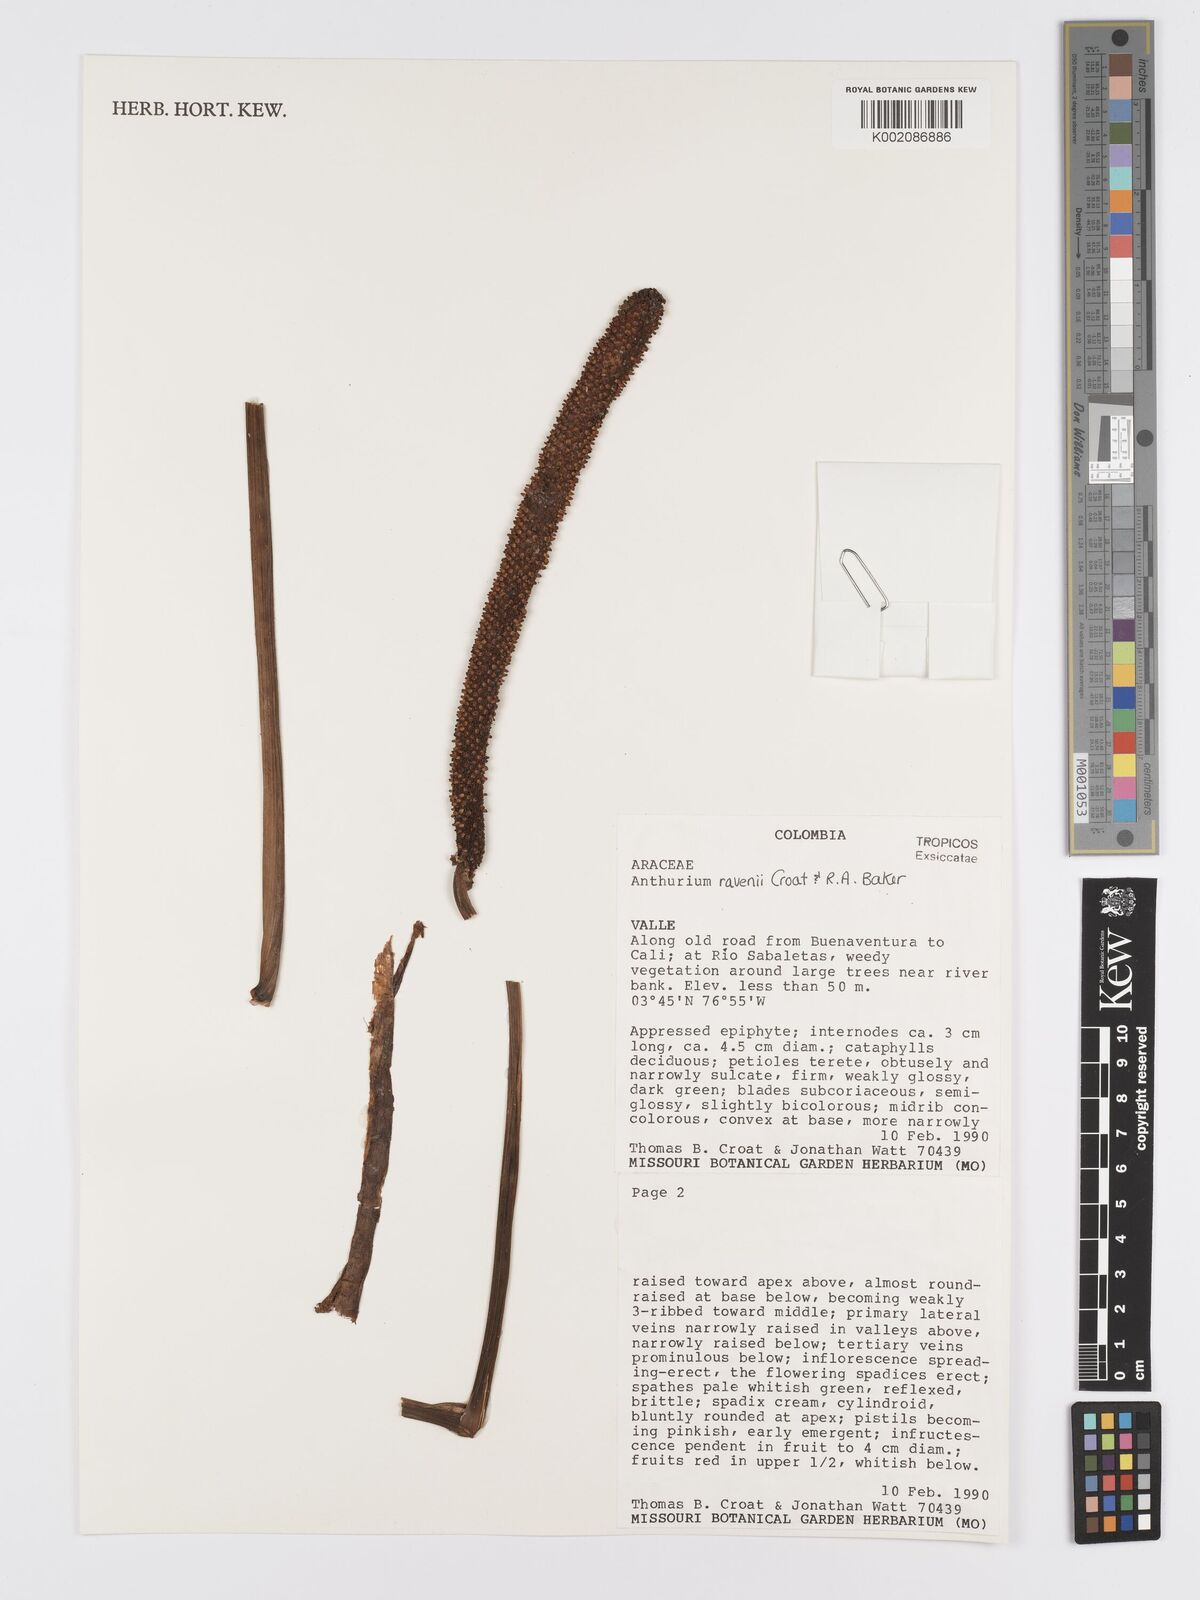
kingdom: Plantae
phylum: Tracheophyta
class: Liliopsida
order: Alismatales
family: Araceae
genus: Anthurium
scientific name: Anthurium ravenii
